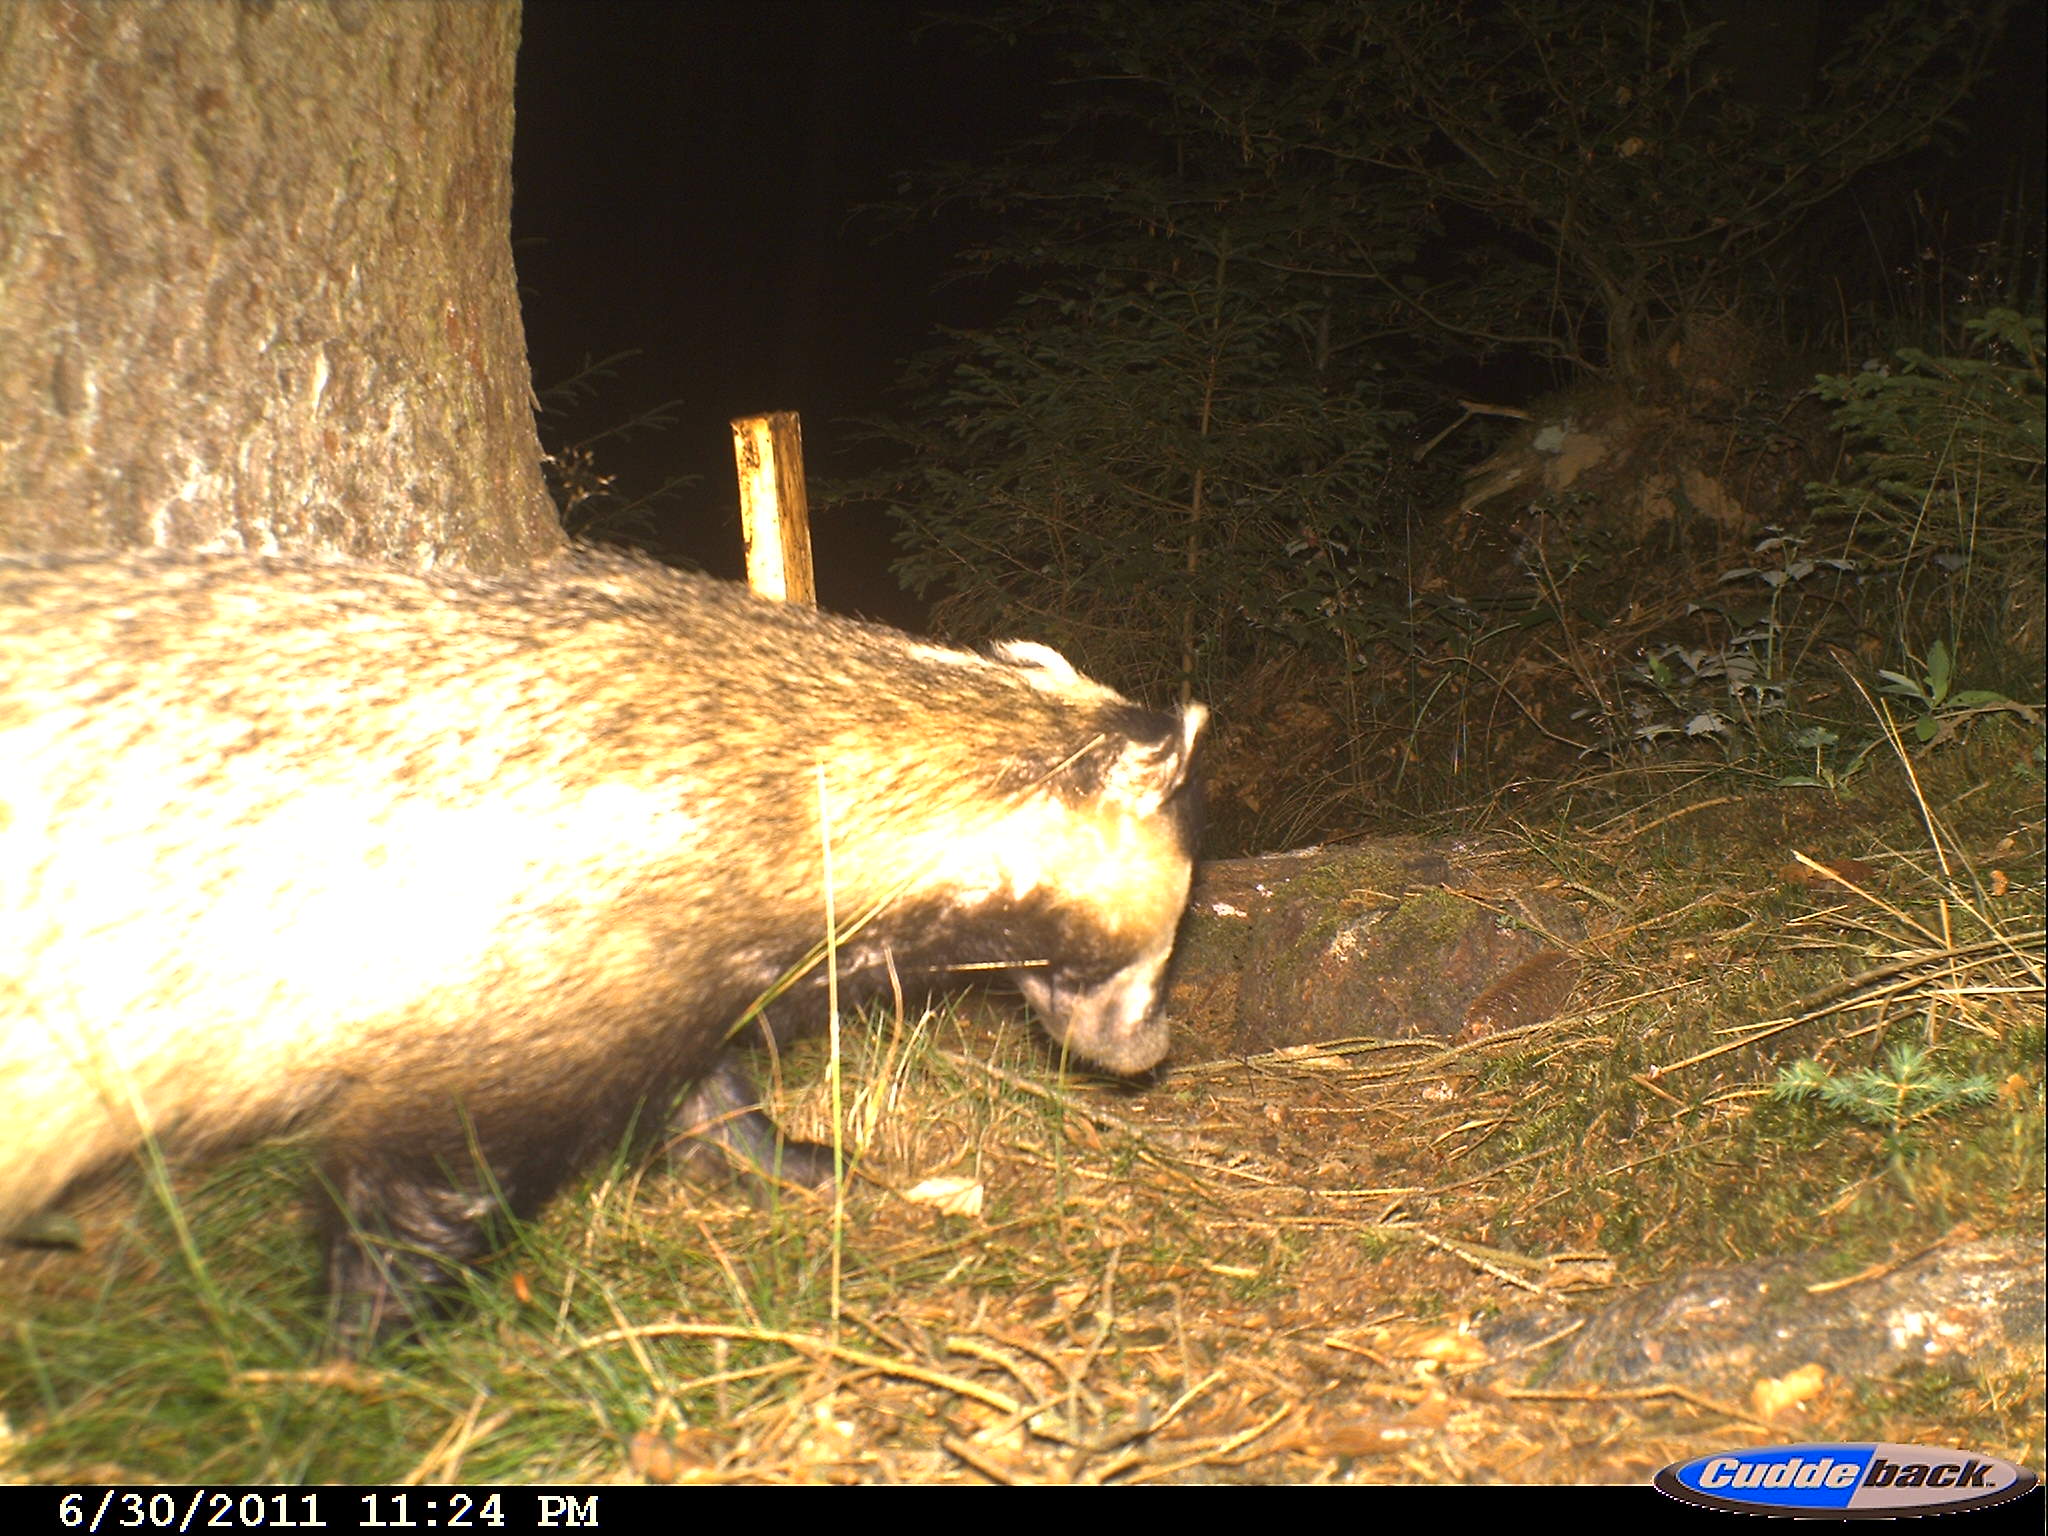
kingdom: Animalia
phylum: Chordata
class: Mammalia
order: Carnivora
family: Mustelidae
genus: Meles
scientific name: Meles meles
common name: Eurasian badger
